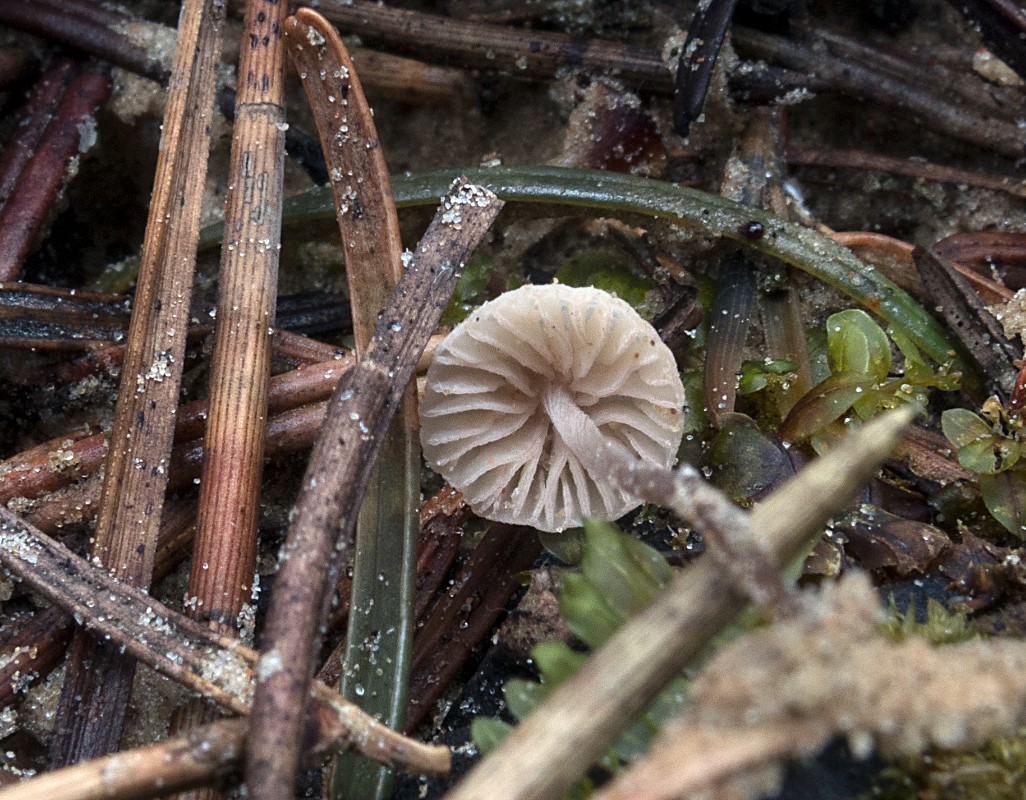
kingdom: Fungi
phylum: Basidiomycota
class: Agaricomycetes
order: Agaricales
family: Mycenaceae
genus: Mycena
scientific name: Mycena albidolilacea
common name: lyslilla huesvamp
